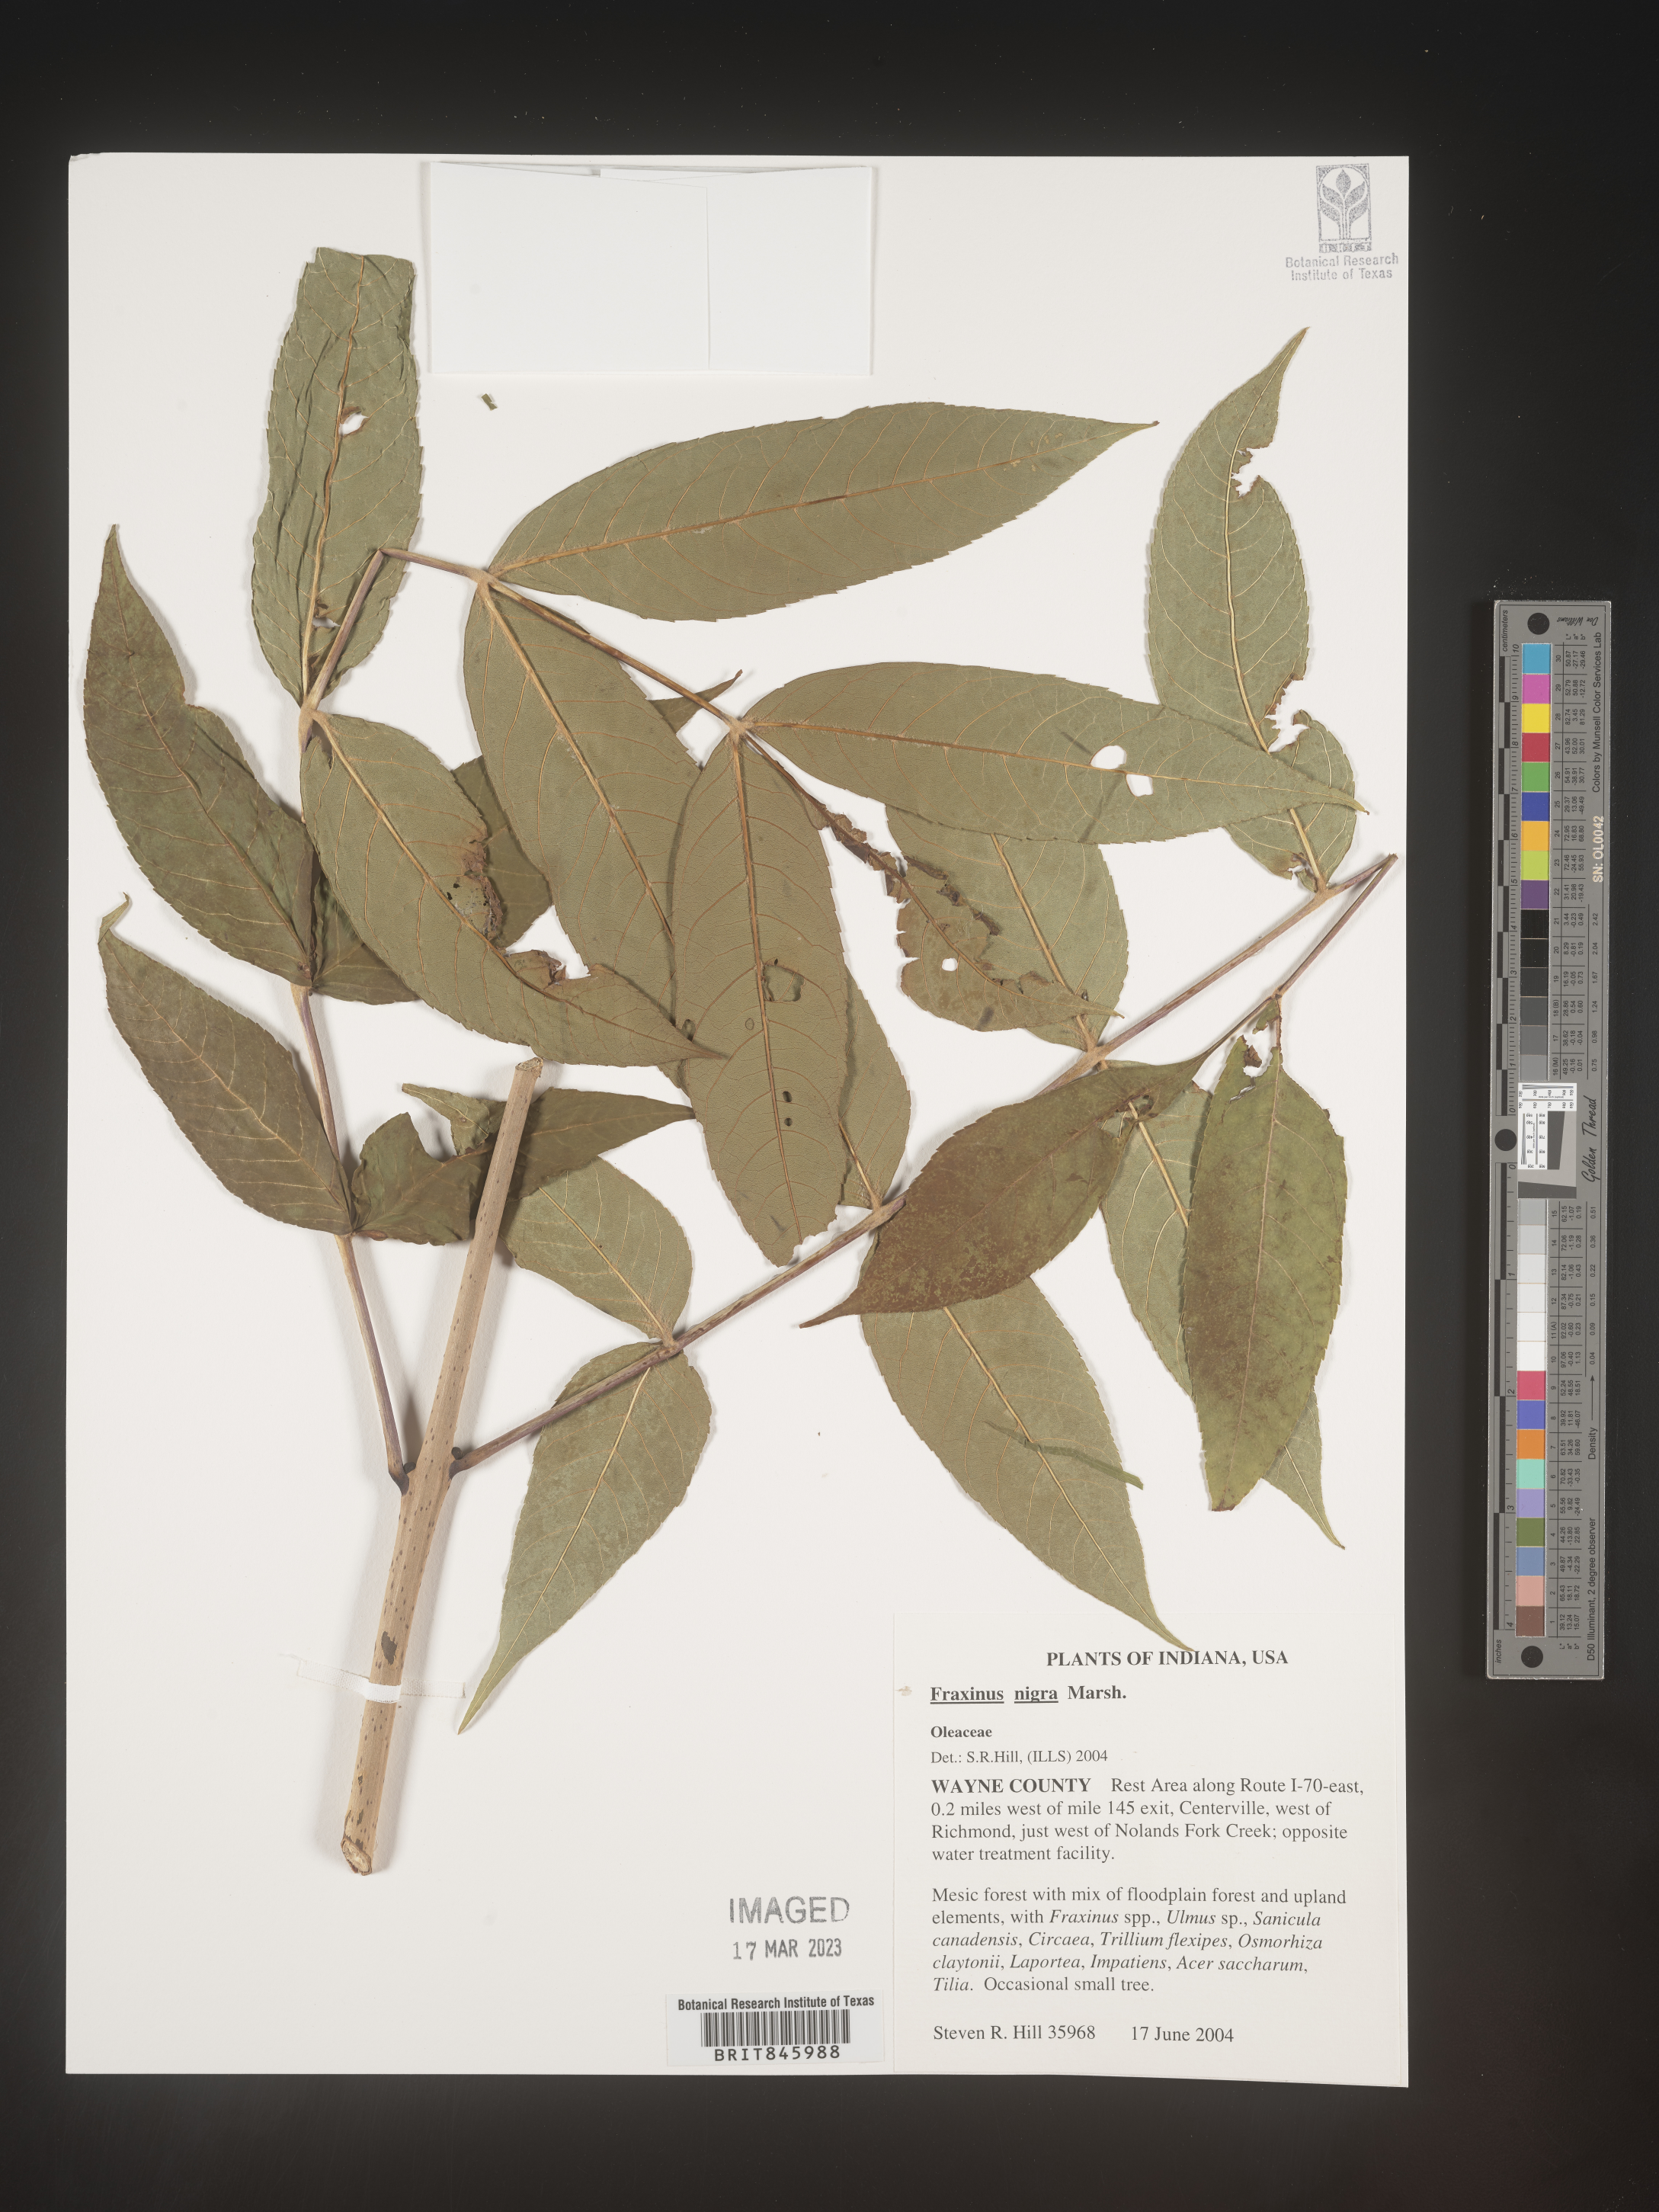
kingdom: Plantae
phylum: Tracheophyta
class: Magnoliopsida
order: Lamiales
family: Oleaceae
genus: Fraxinus
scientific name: Fraxinus nigra
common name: Black ash
